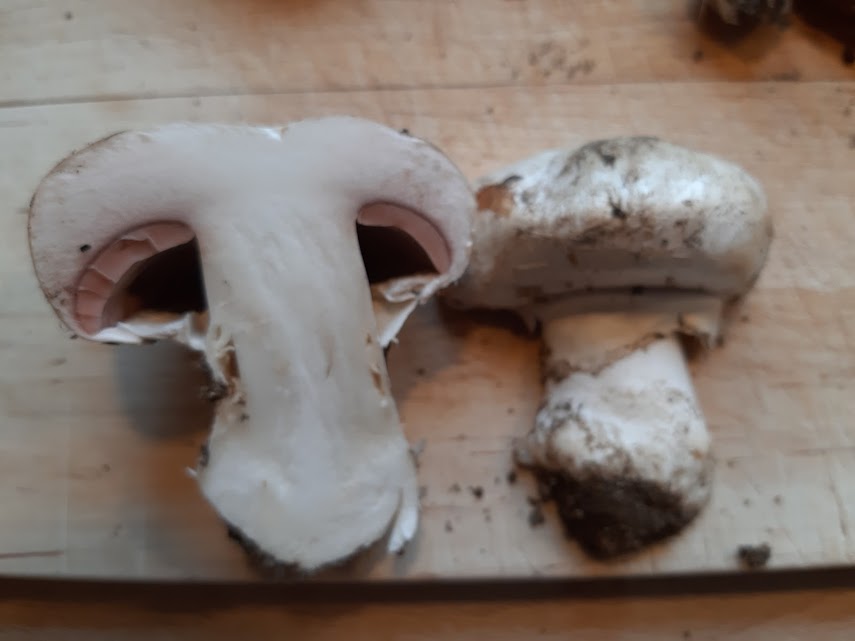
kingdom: Fungi
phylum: Basidiomycota
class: Agaricomycetes
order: Agaricales
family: Agaricaceae
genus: Agaricus
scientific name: Agaricus bitorquis
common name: vej-champignon
